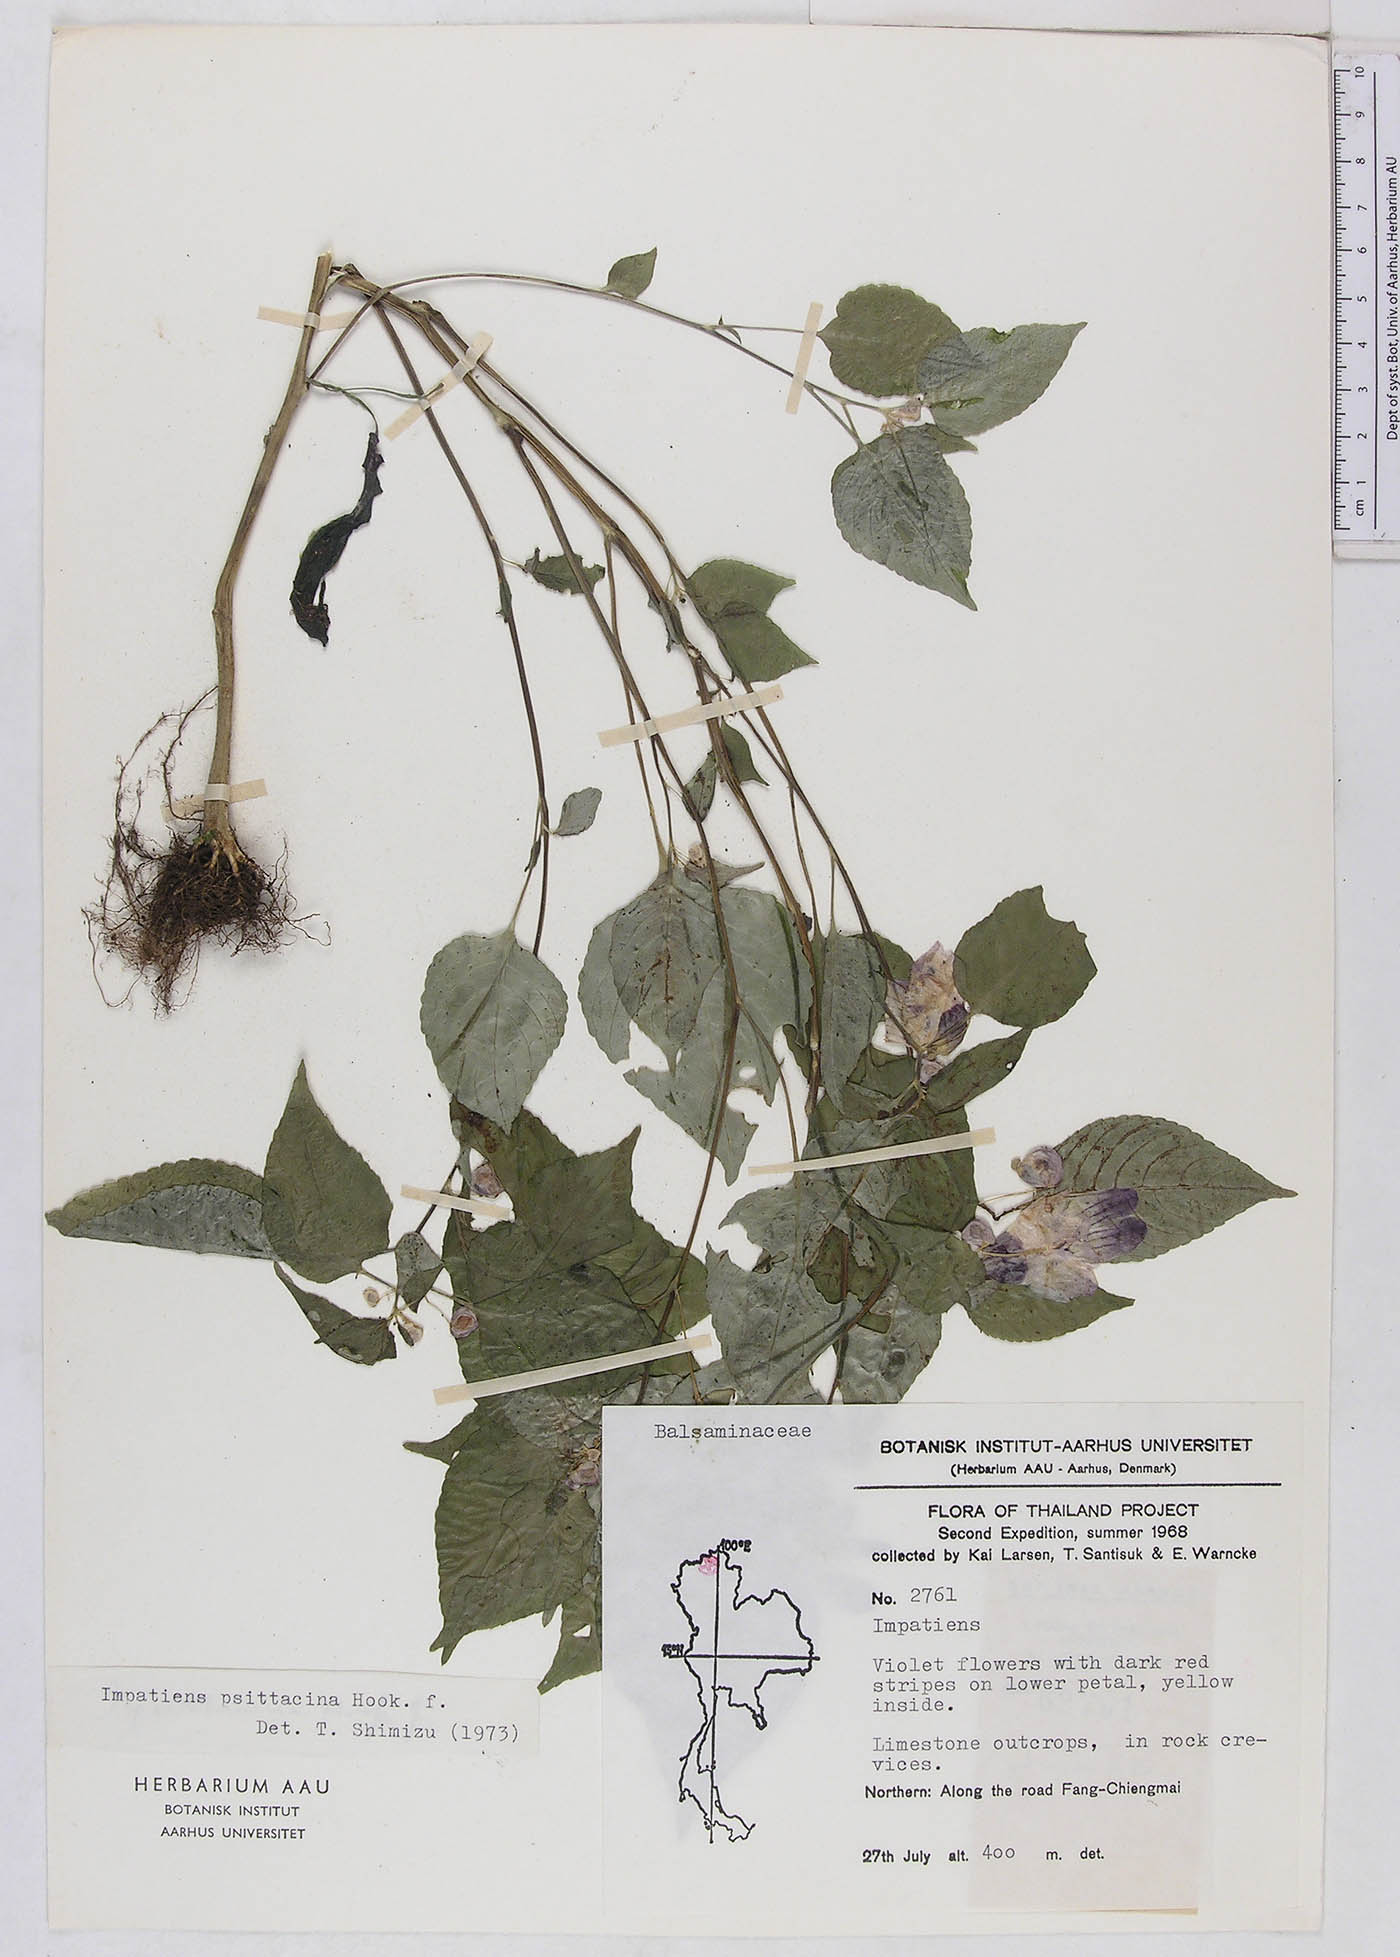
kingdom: Plantae
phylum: Tracheophyta
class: Magnoliopsida
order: Ericales
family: Balsaminaceae
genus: Impatiens
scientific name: Impatiens psittacina
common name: Parrot-flower
